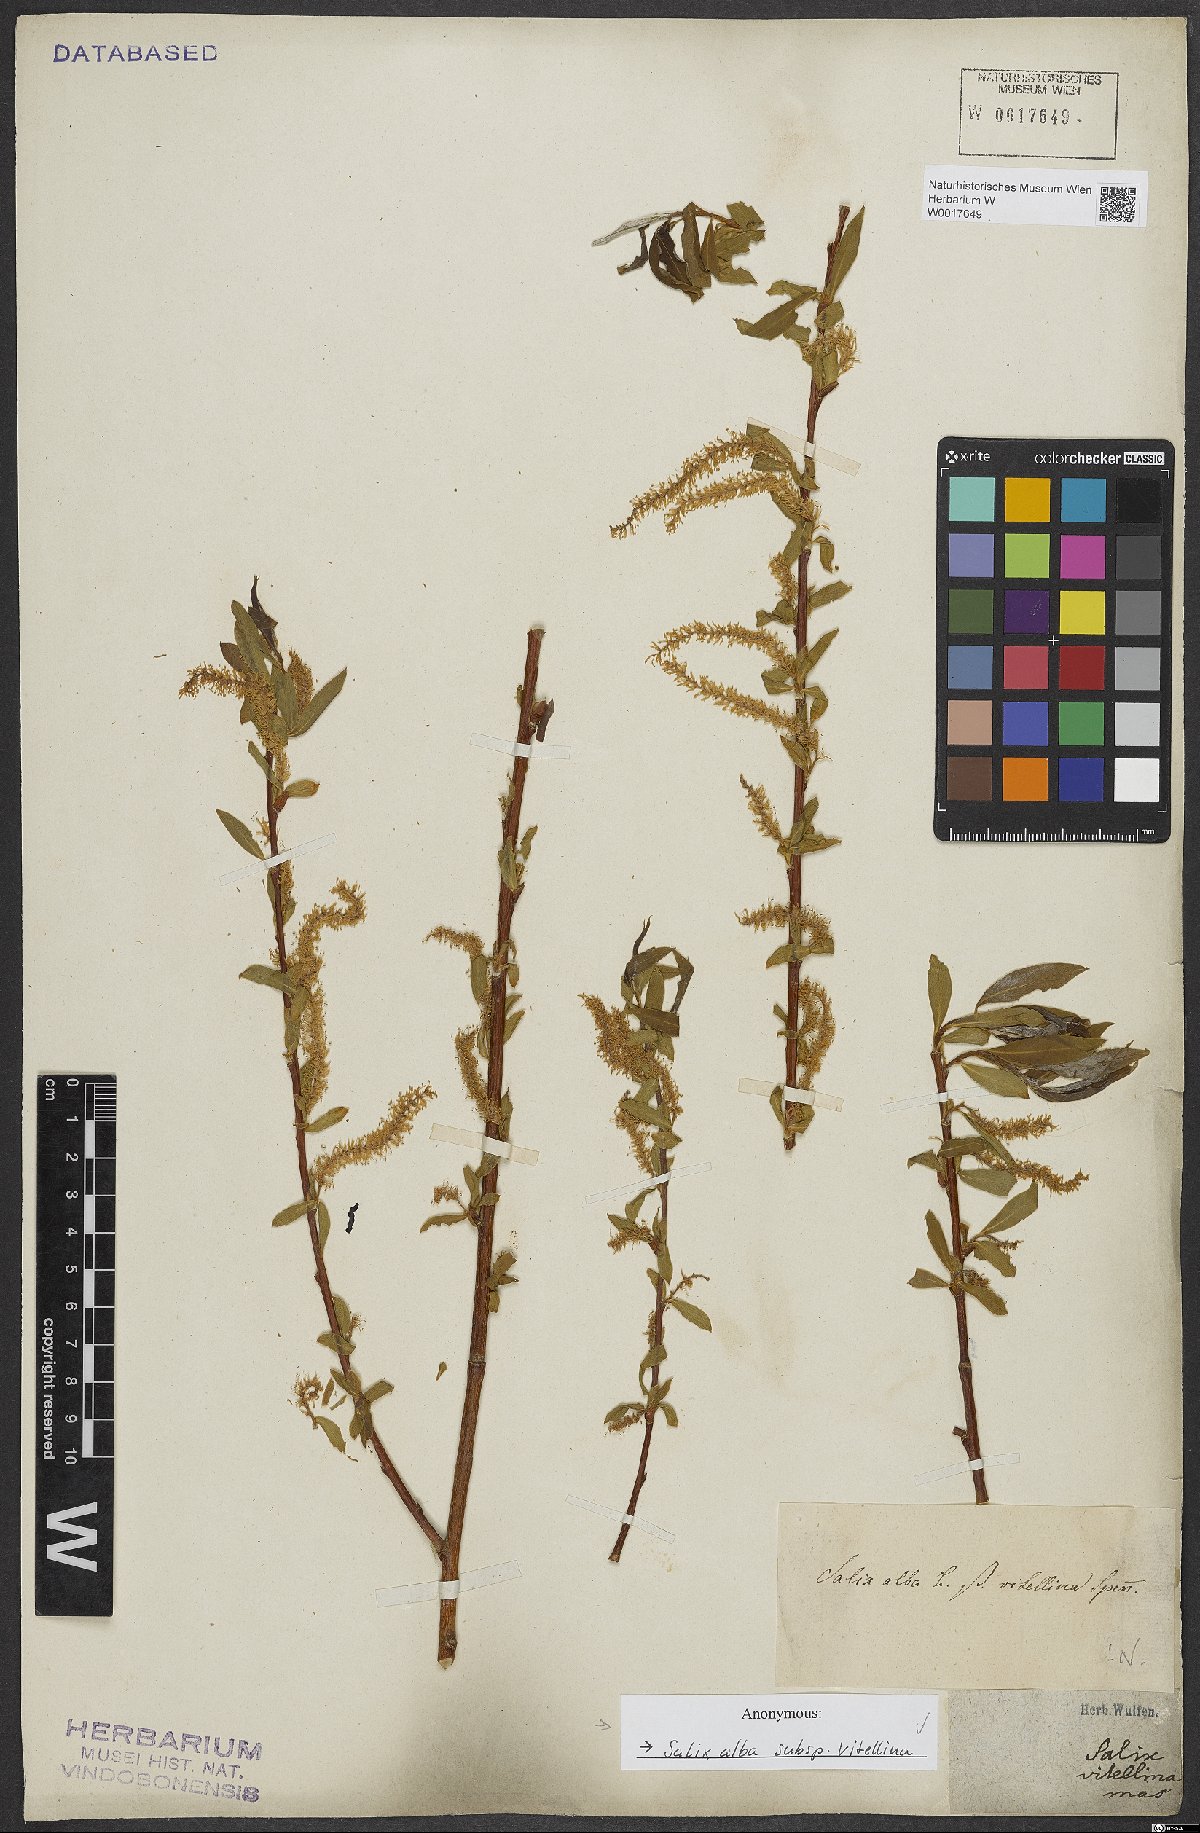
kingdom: Plantae
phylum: Tracheophyta
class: Magnoliopsida
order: Malpighiales
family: Salicaceae
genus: Salix
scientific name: Salix alba
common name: White willow
